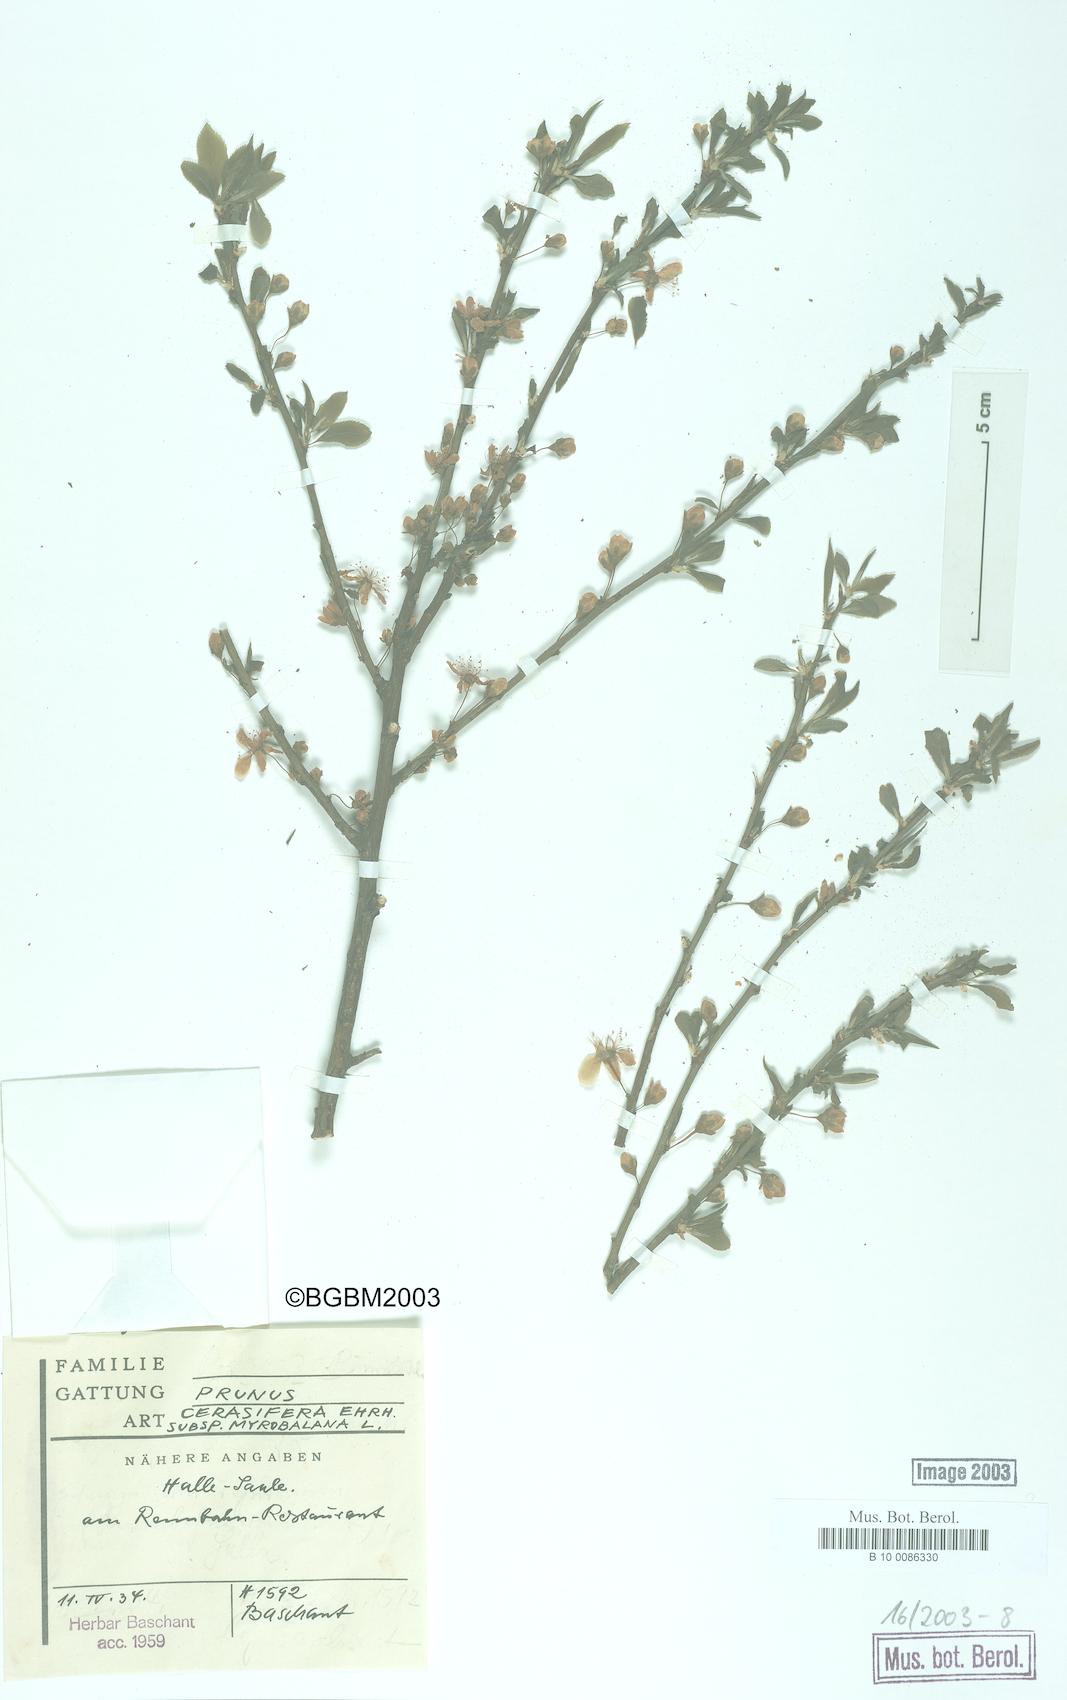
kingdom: Plantae
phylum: Tracheophyta
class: Magnoliopsida
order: Rosales
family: Rosaceae
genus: Prunus
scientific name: Prunus cerasifera
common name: Cherry plum
